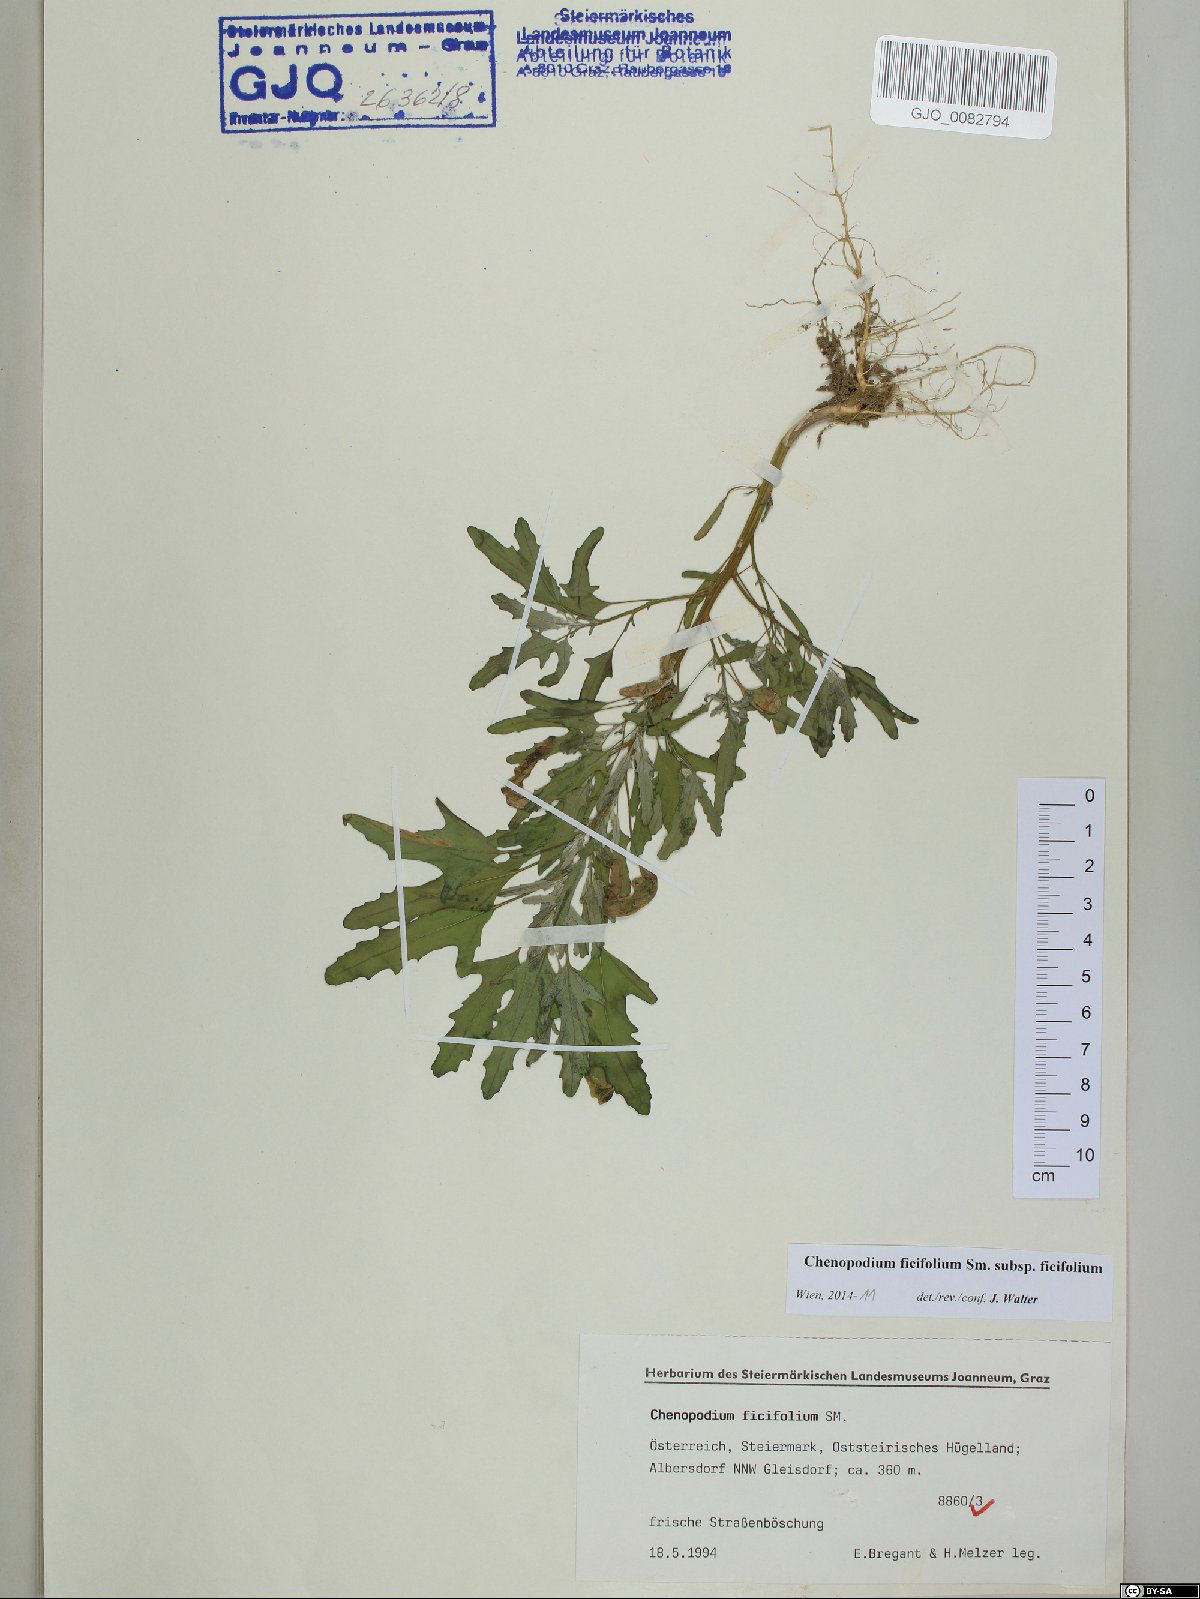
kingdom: Plantae
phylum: Tracheophyta
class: Magnoliopsida
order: Caryophyllales
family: Amaranthaceae
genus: Chenopodium
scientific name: Chenopodium ficifolium
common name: Fig-leaved goosefoot
